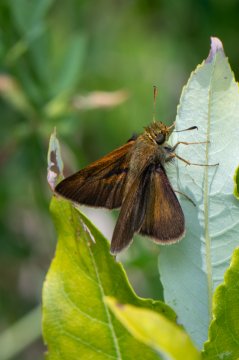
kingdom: Animalia
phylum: Arthropoda
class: Insecta
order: Lepidoptera
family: Hesperiidae
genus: Euphyes
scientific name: Euphyes vestris
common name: Dun Skipper
